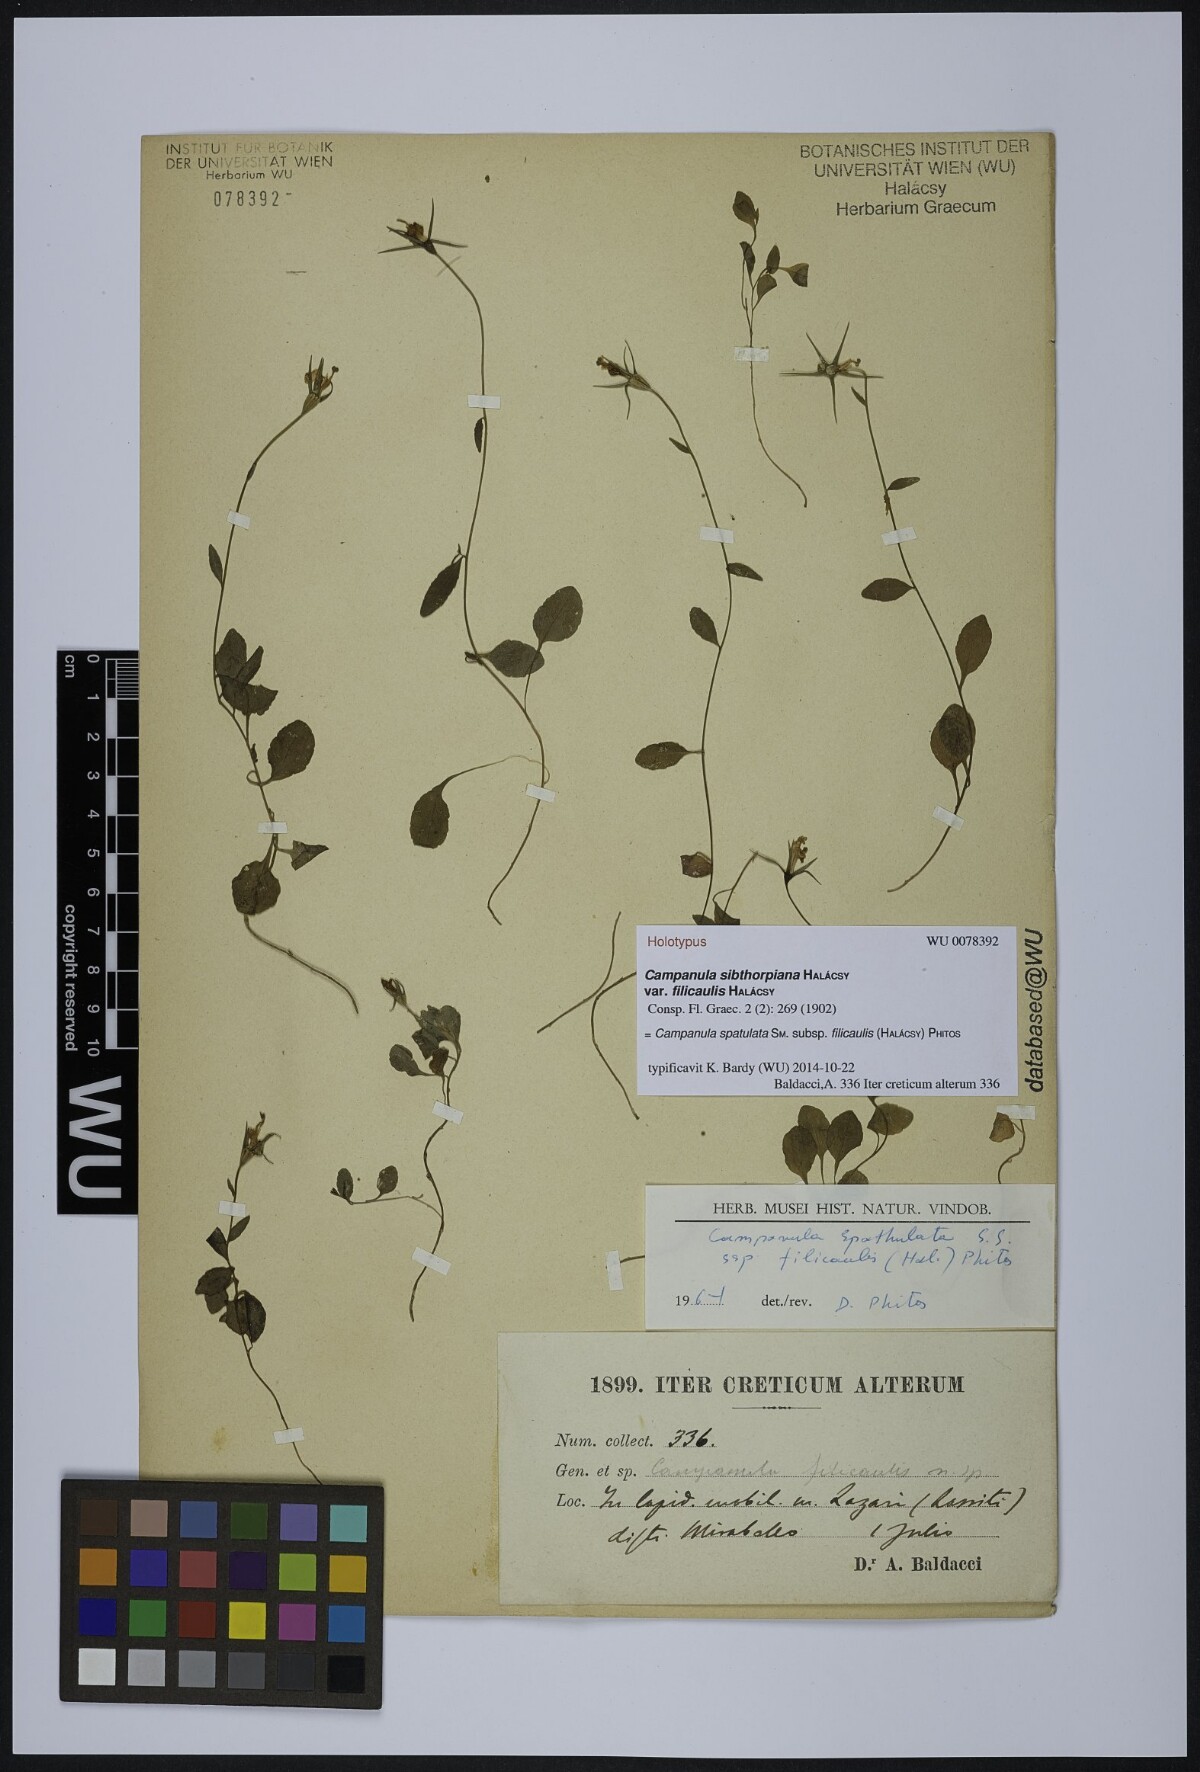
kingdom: Plantae
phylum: Tracheophyta
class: Magnoliopsida
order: Asterales
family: Campanulaceae
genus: Campanula
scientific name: Campanula spatulata
